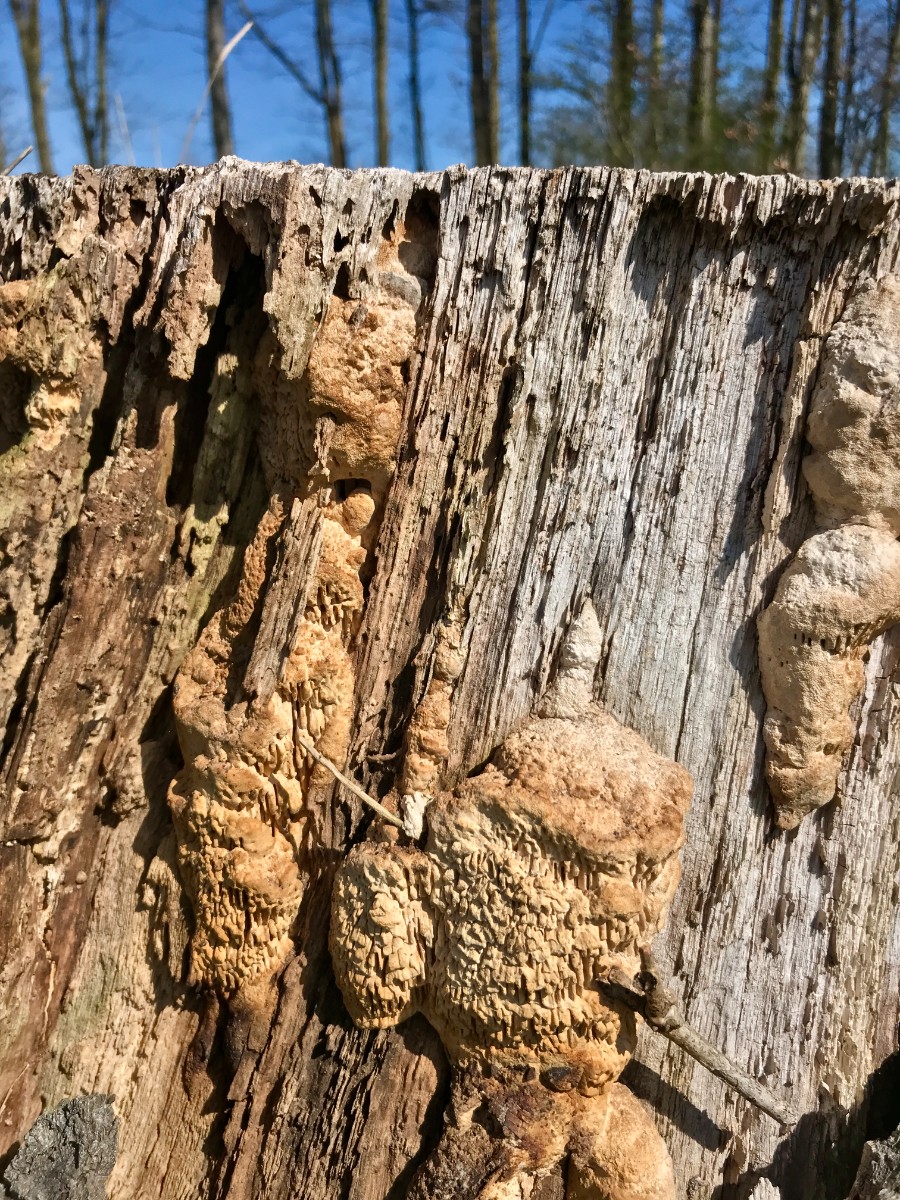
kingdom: Fungi
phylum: Basidiomycota
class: Agaricomycetes
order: Polyporales
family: Fomitopsidaceae
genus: Daedalea
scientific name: Daedalea quercina
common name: ege-labyrintsvamp
